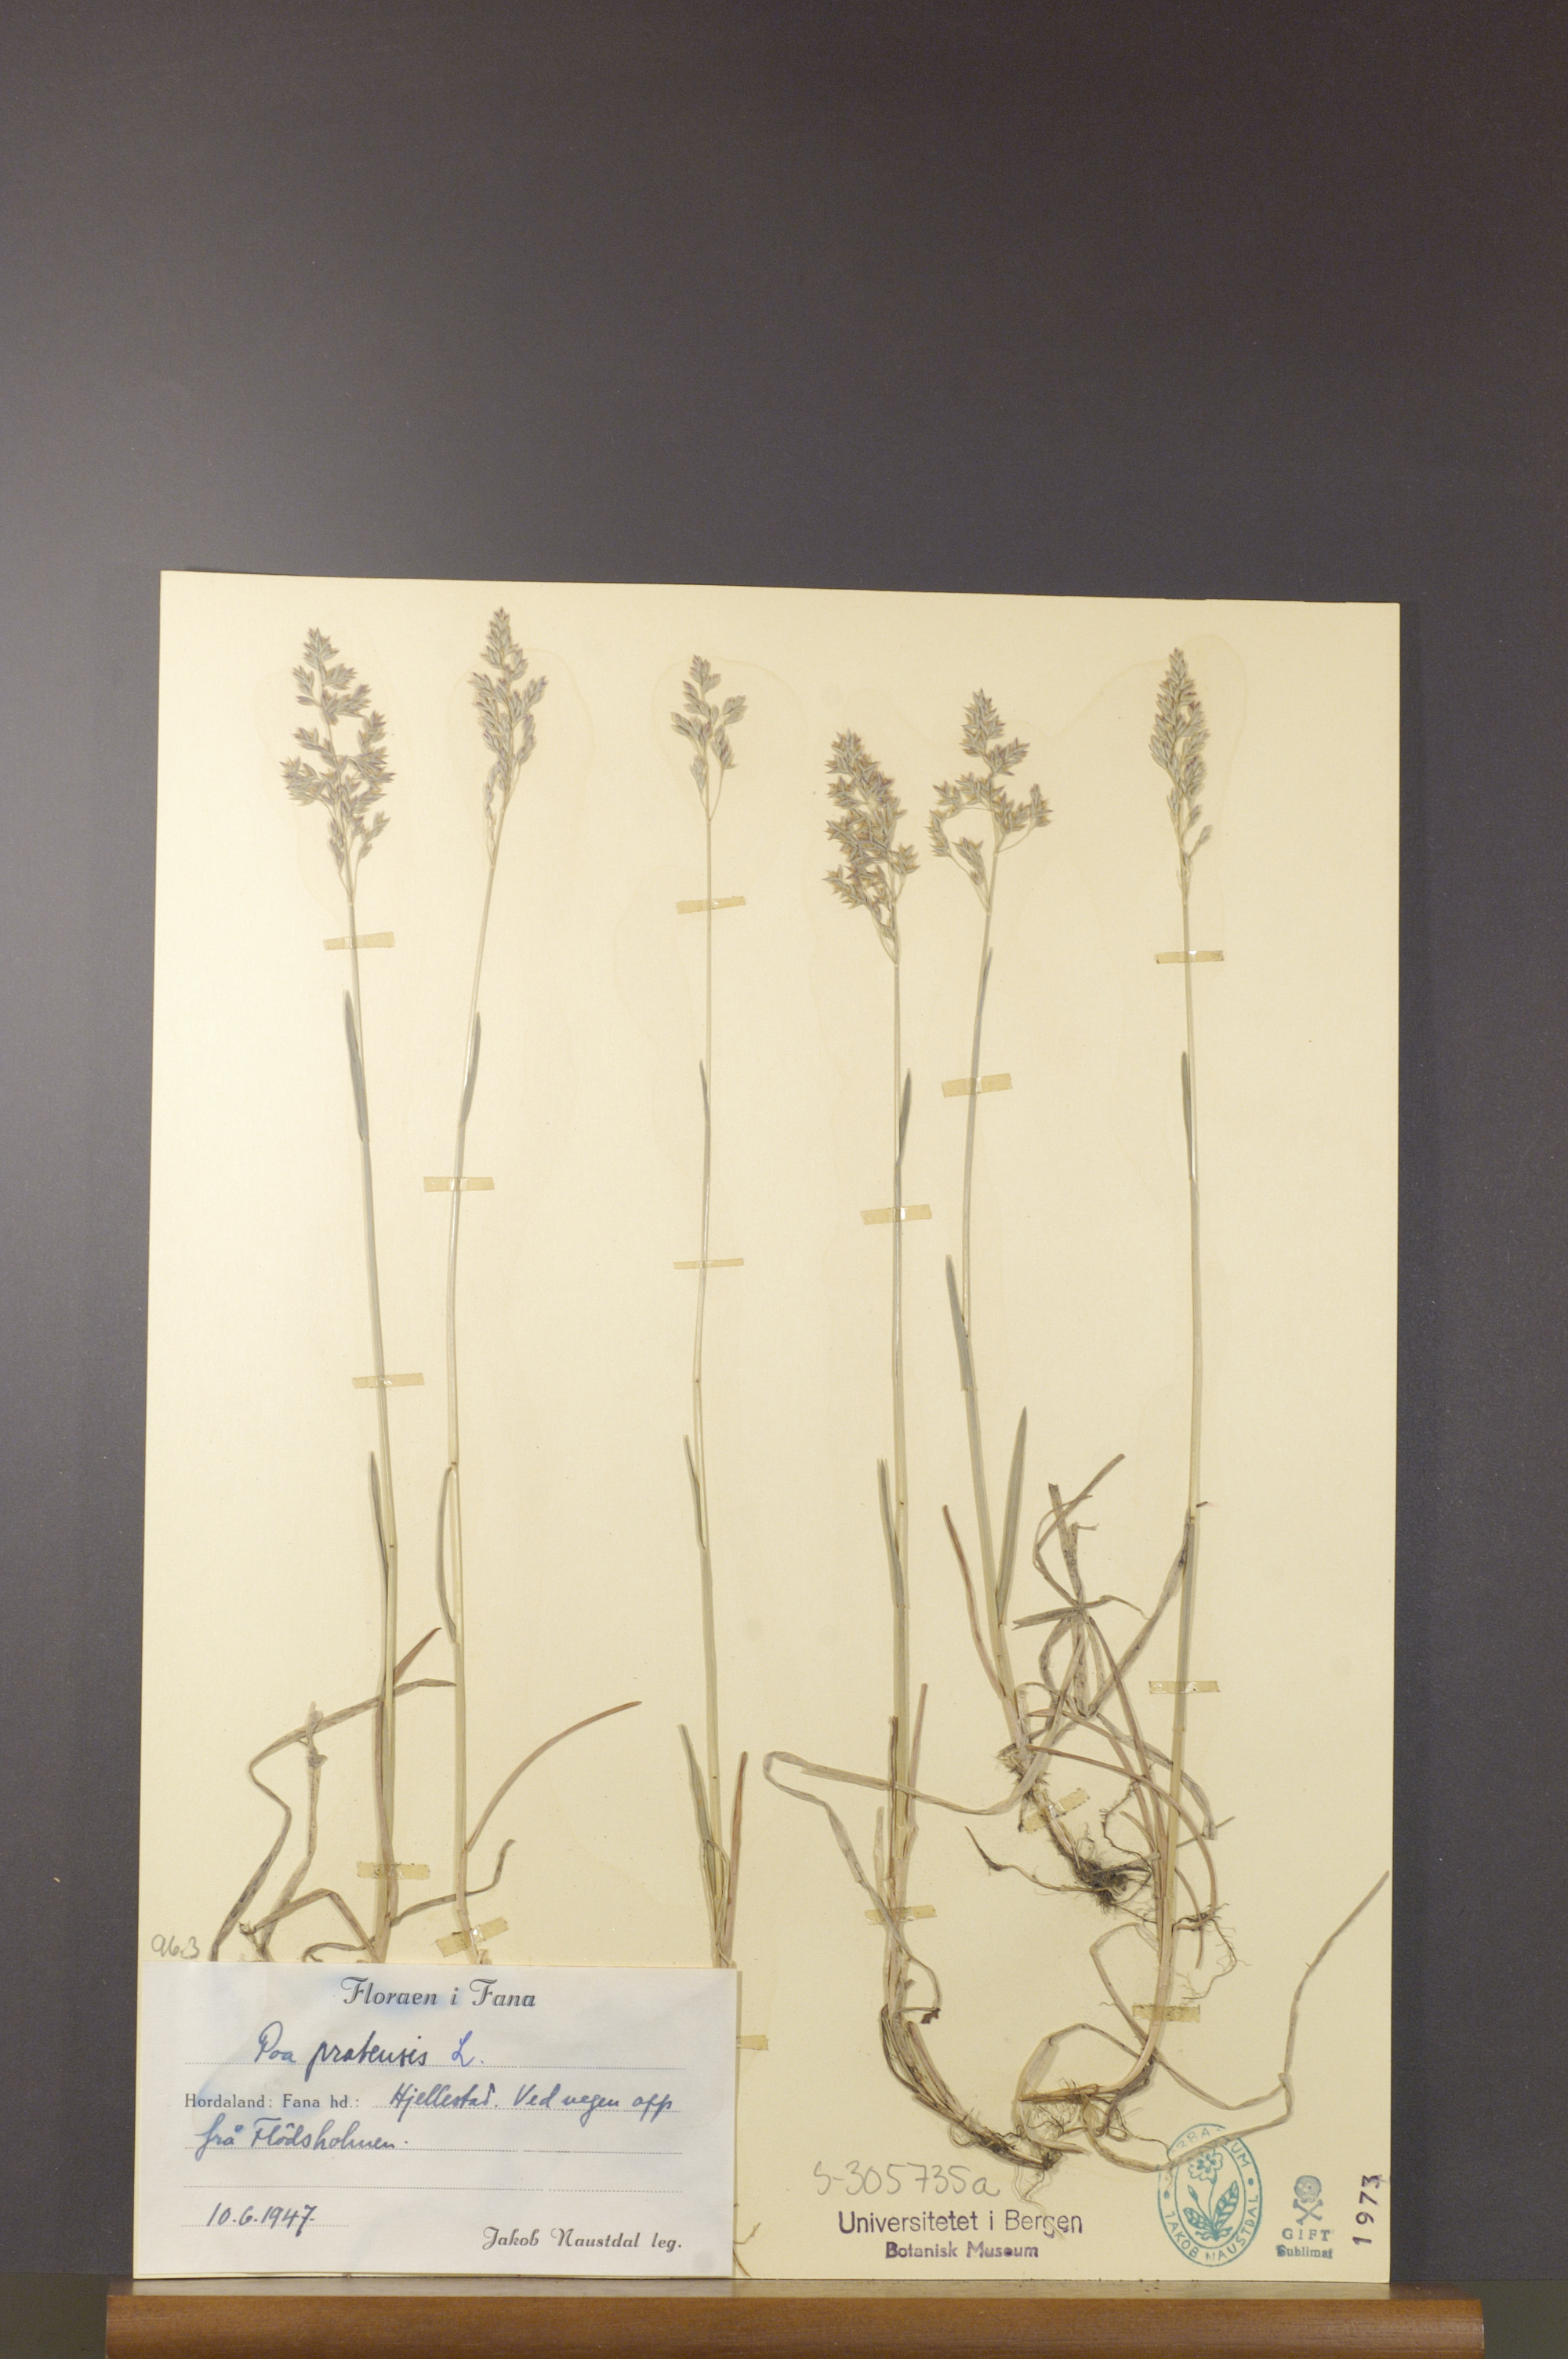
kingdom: Plantae
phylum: Tracheophyta
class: Liliopsida
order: Poales
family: Poaceae
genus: Poa
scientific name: Poa pratensis
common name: Kentucky bluegrass
